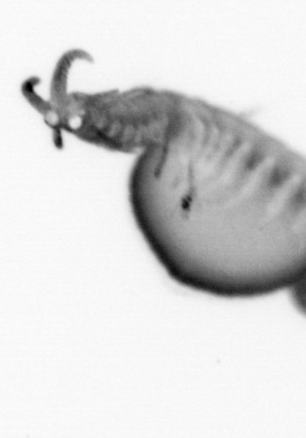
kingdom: Animalia
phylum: Annelida
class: Polychaeta
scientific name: Polychaeta
